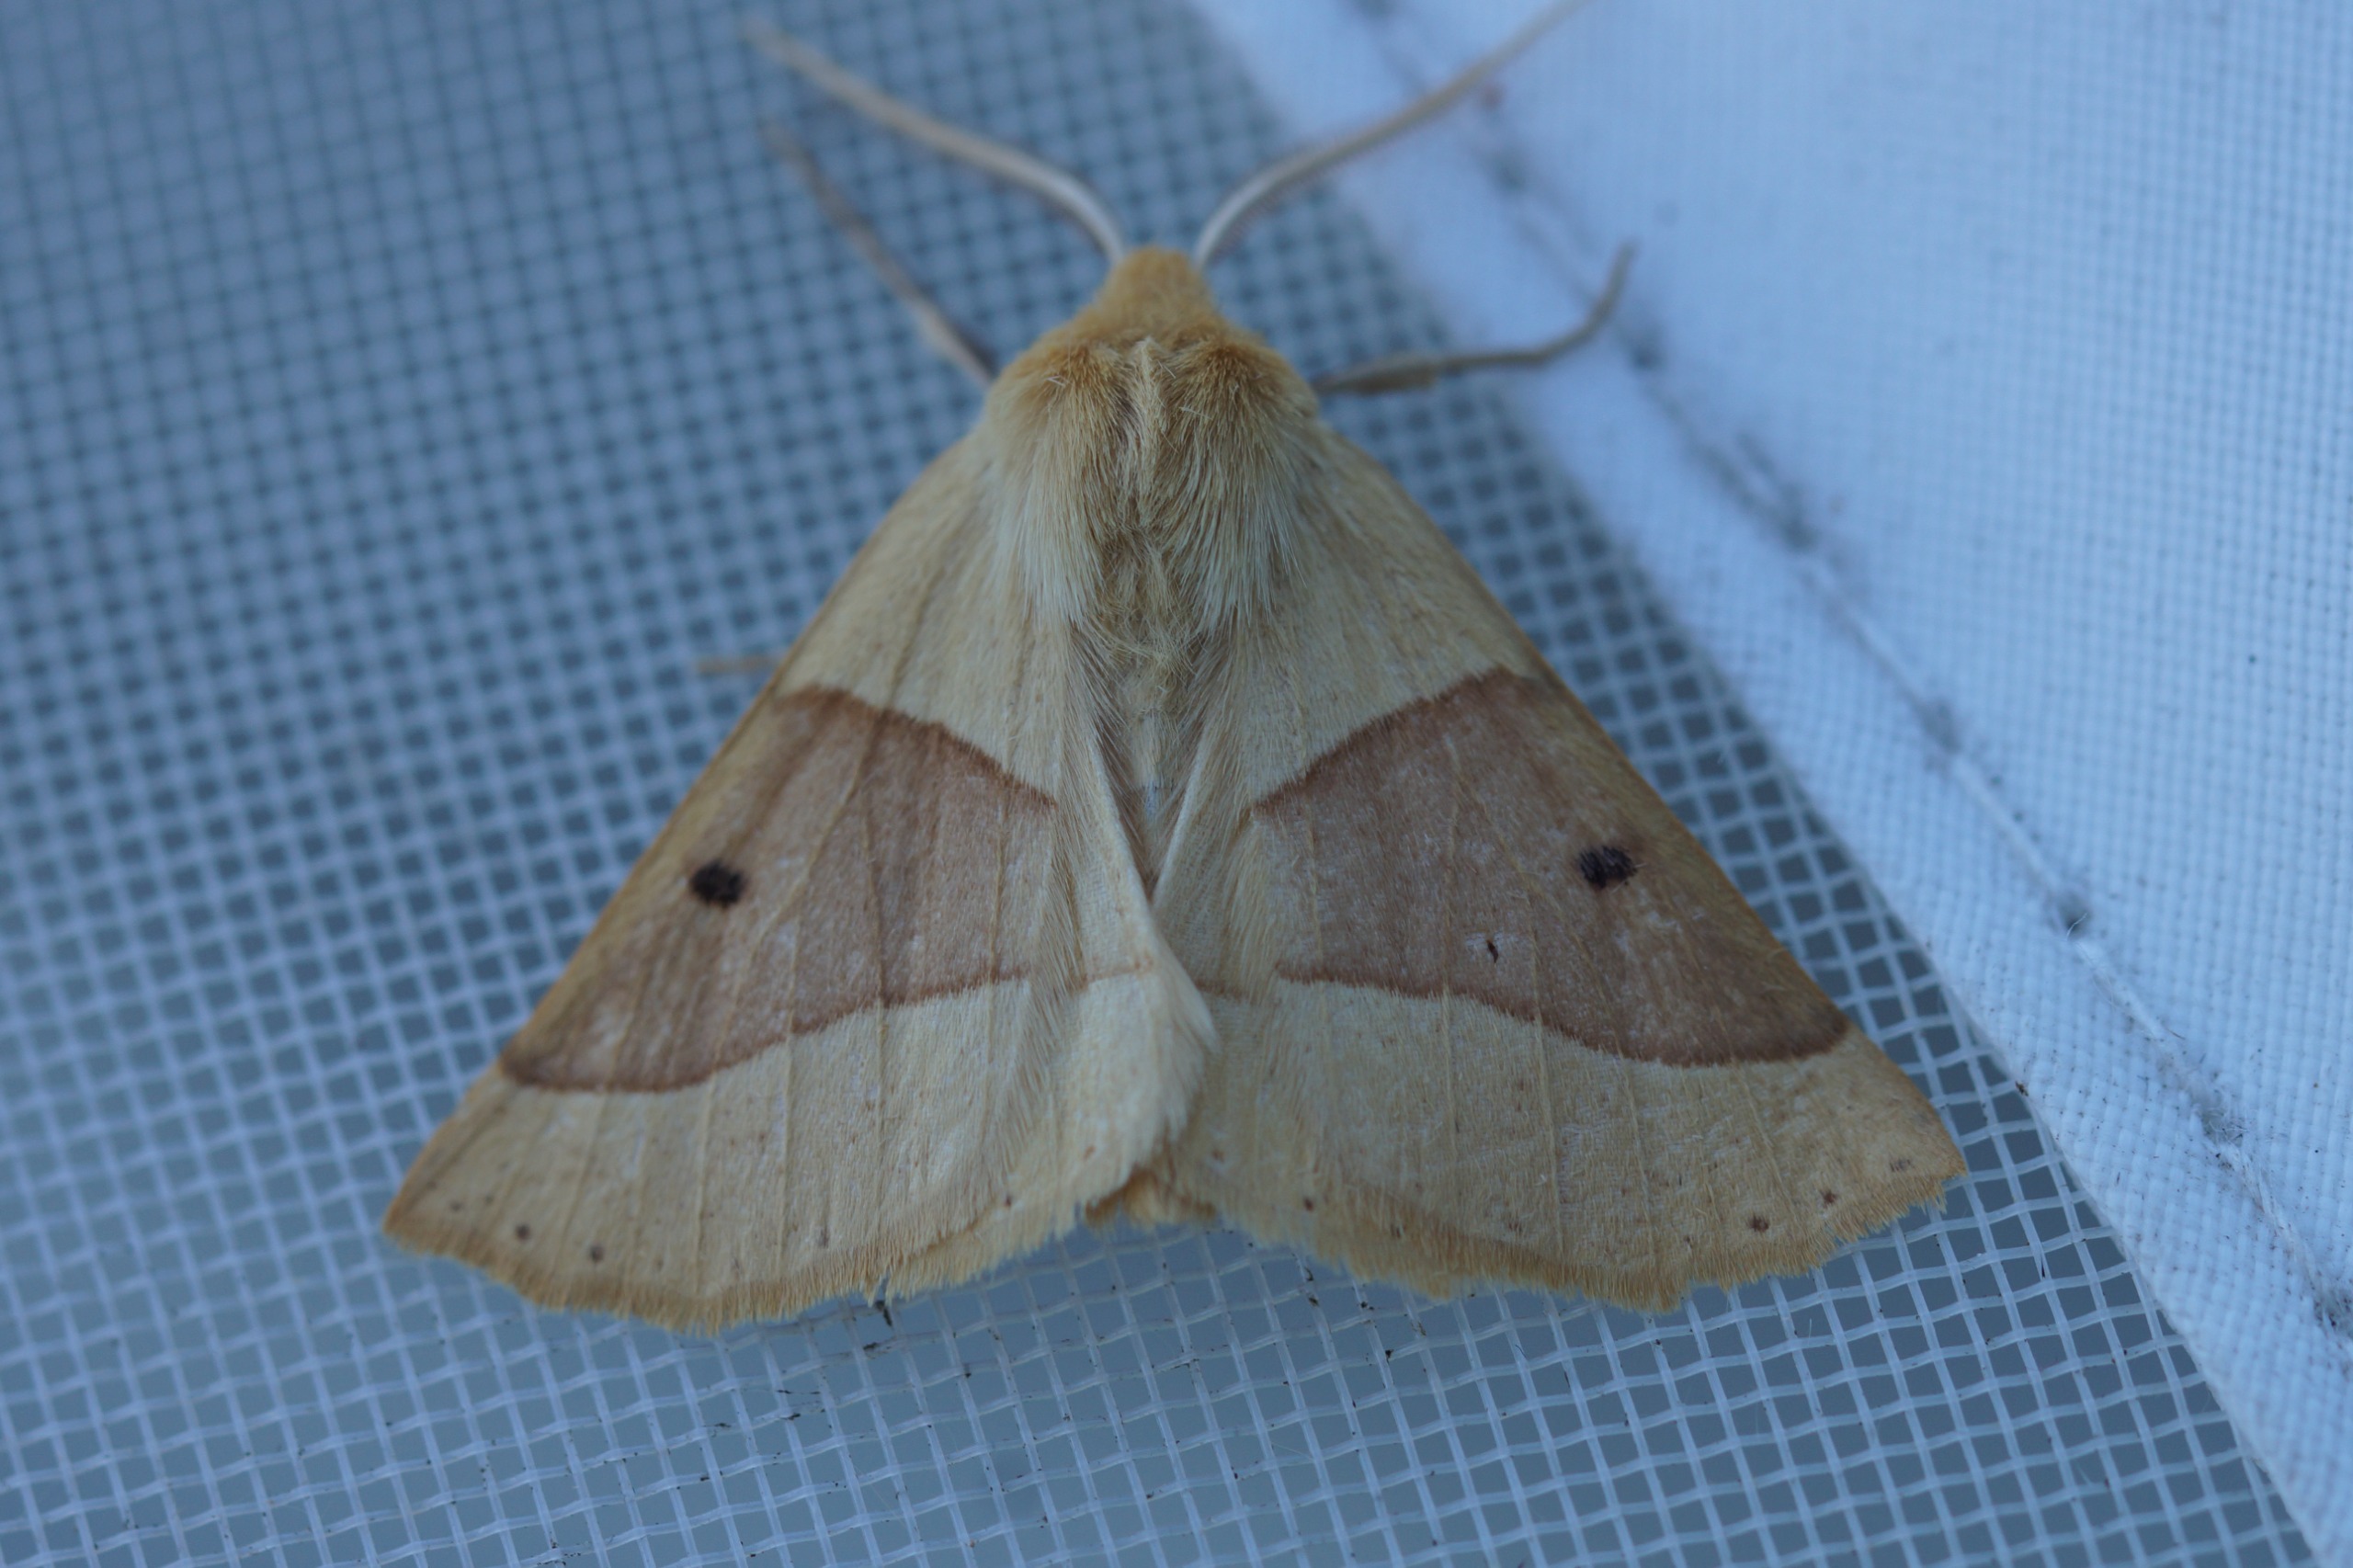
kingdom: Animalia
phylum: Arthropoda
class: Insecta
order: Lepidoptera
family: Geometridae
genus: Crocallis
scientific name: Crocallis elinguaria
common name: Okkergul rovmåler
